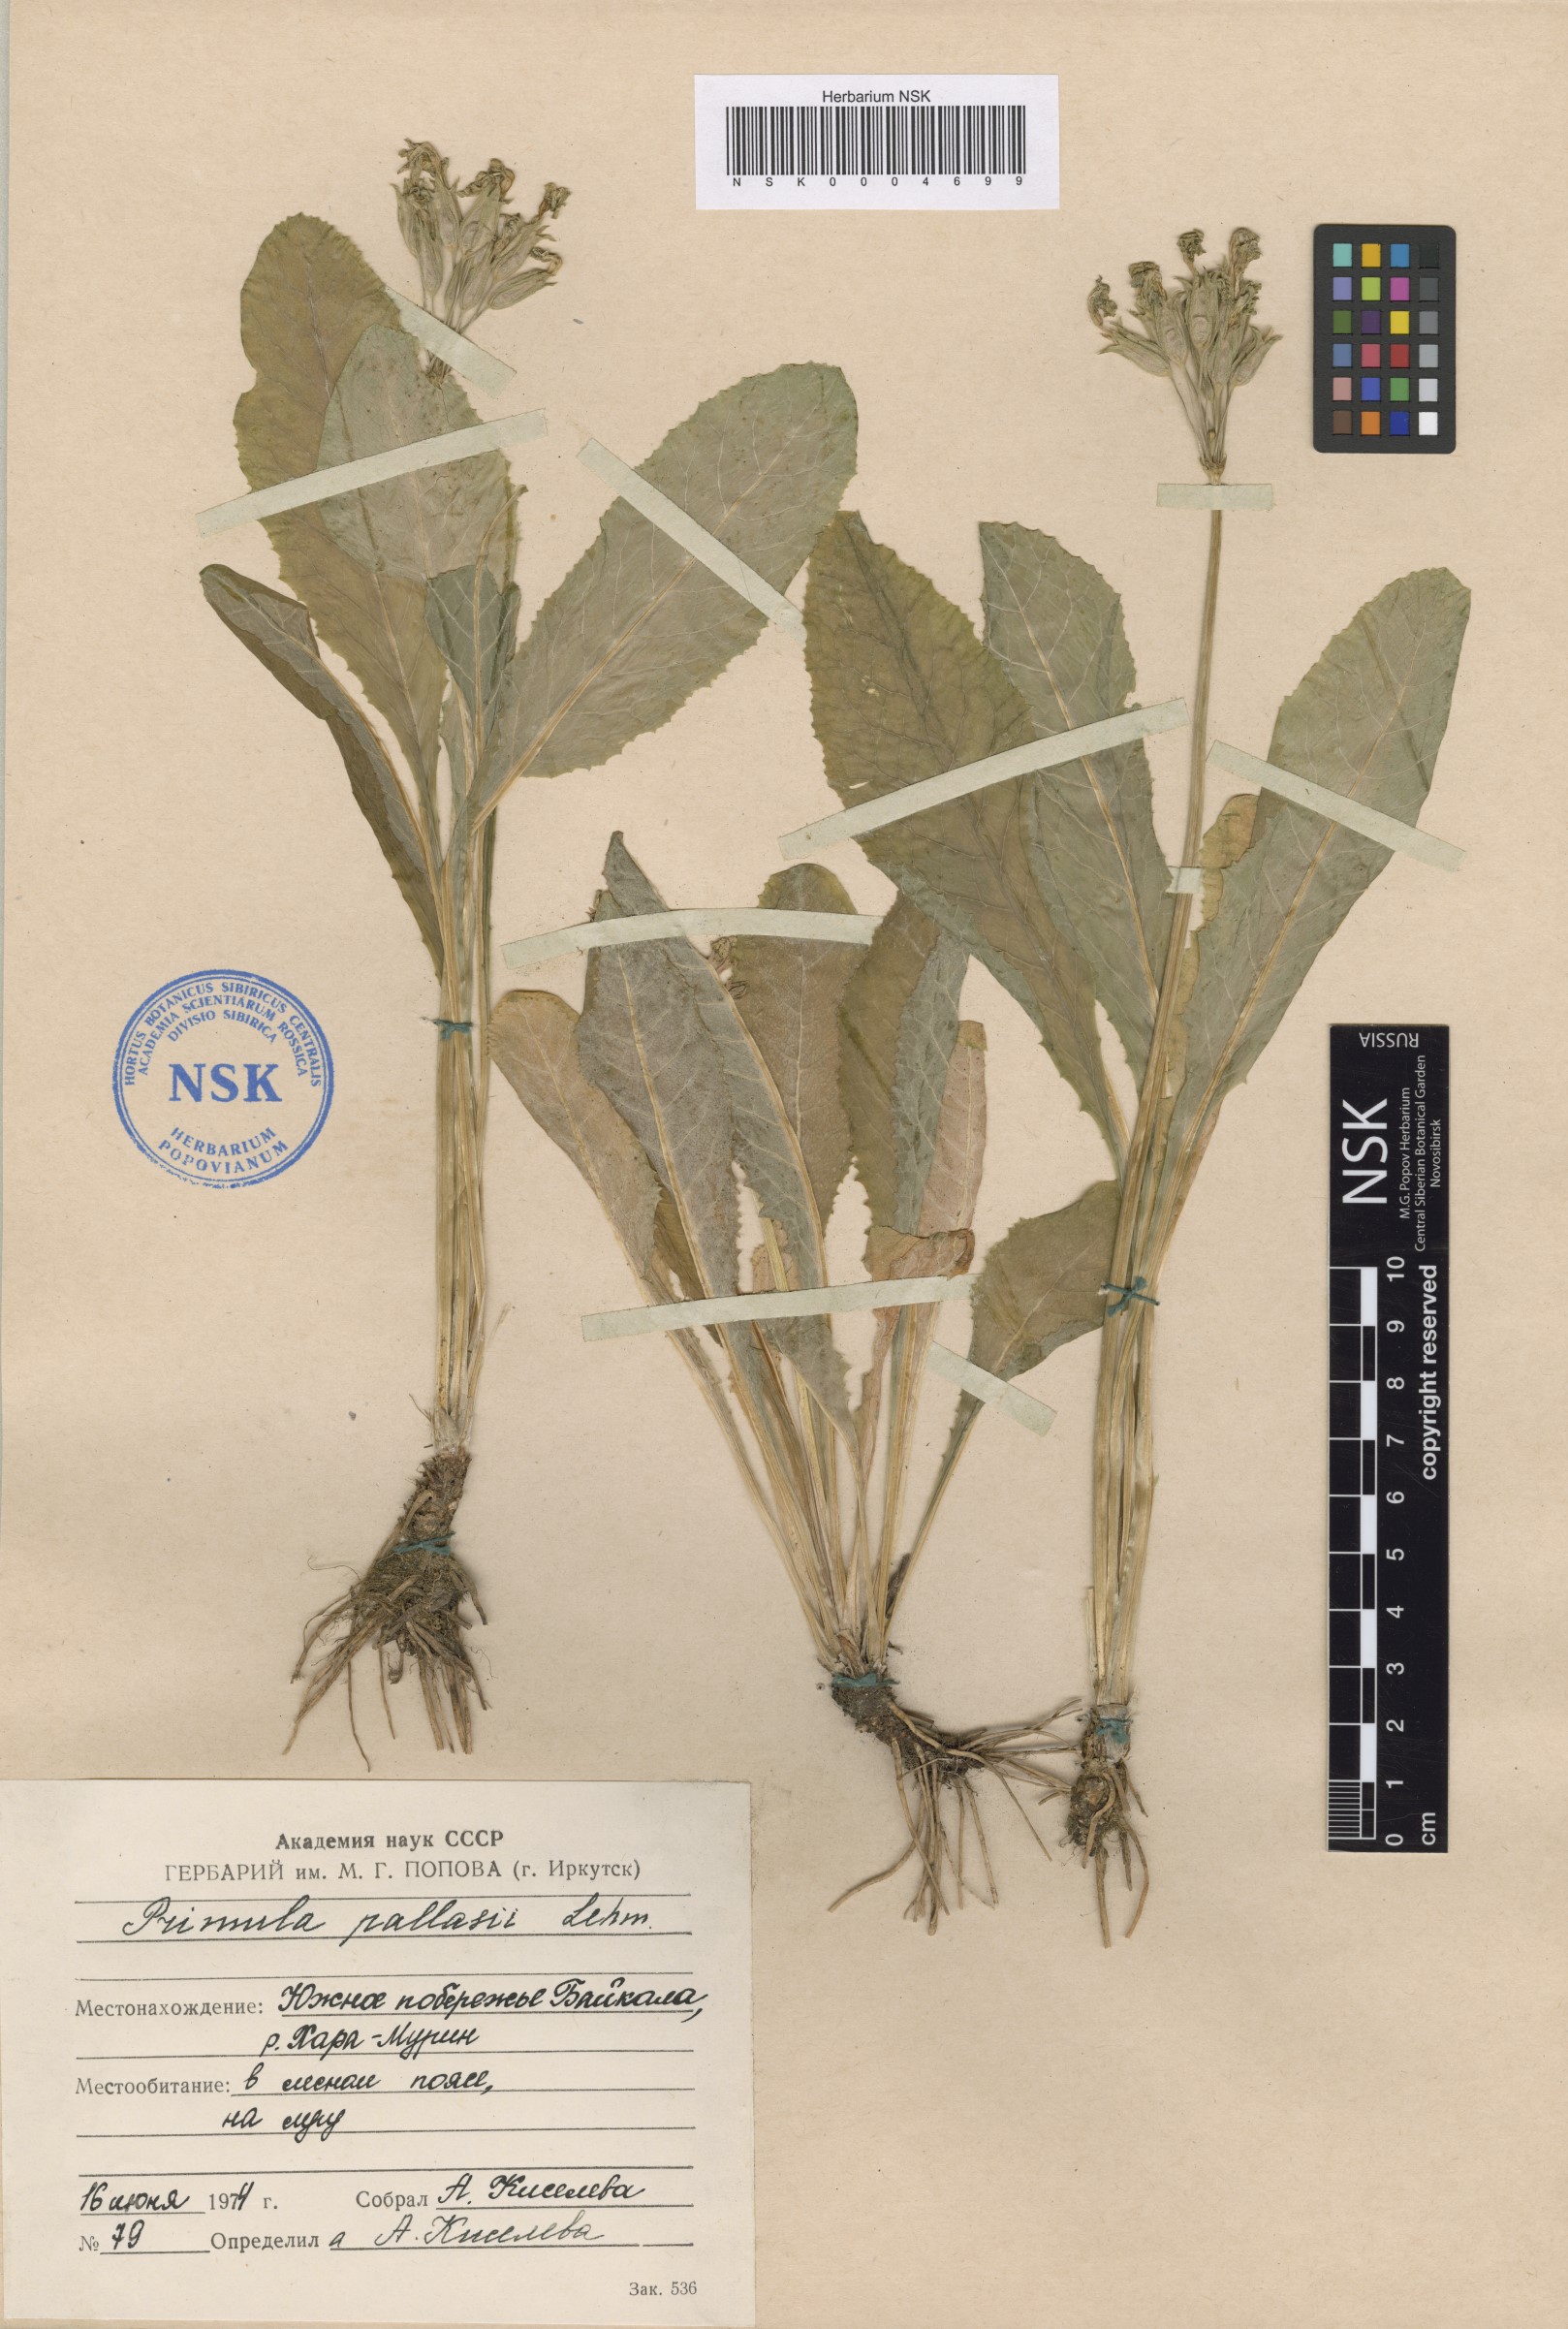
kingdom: Plantae
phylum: Tracheophyta
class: Magnoliopsida
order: Ericales
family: Primulaceae
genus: Primula
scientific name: Primula elatior
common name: Oxlip
